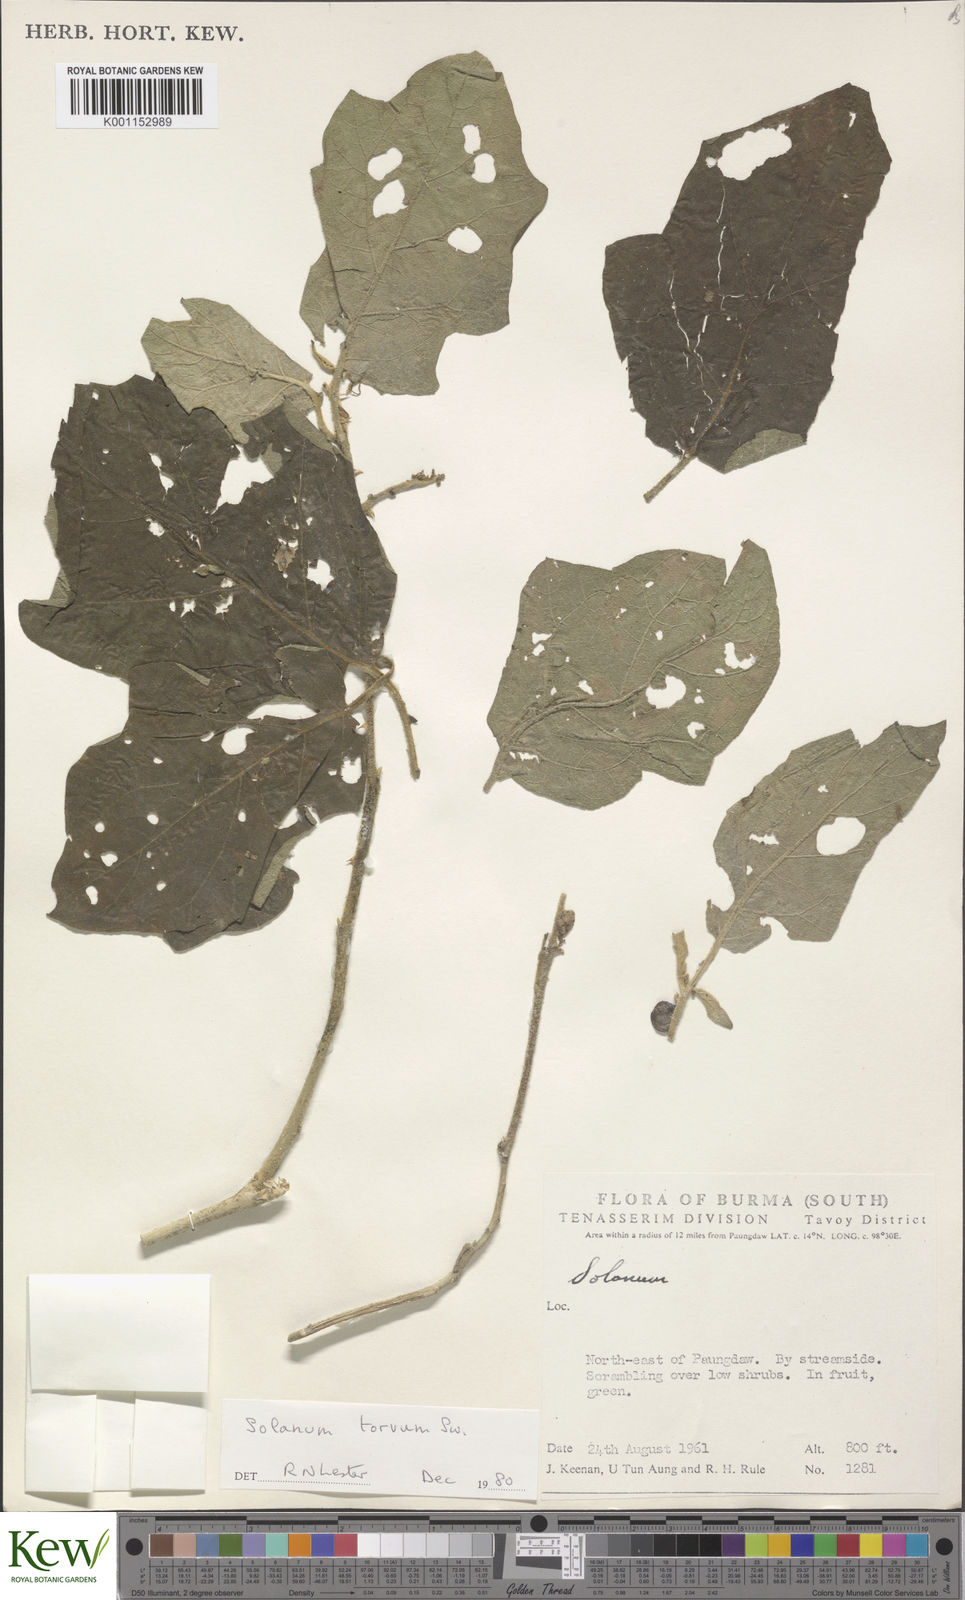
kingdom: Plantae
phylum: Tracheophyta
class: Magnoliopsida
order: Solanales
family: Solanaceae
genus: Solanum
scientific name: Solanum torvum
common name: Turkey berry
